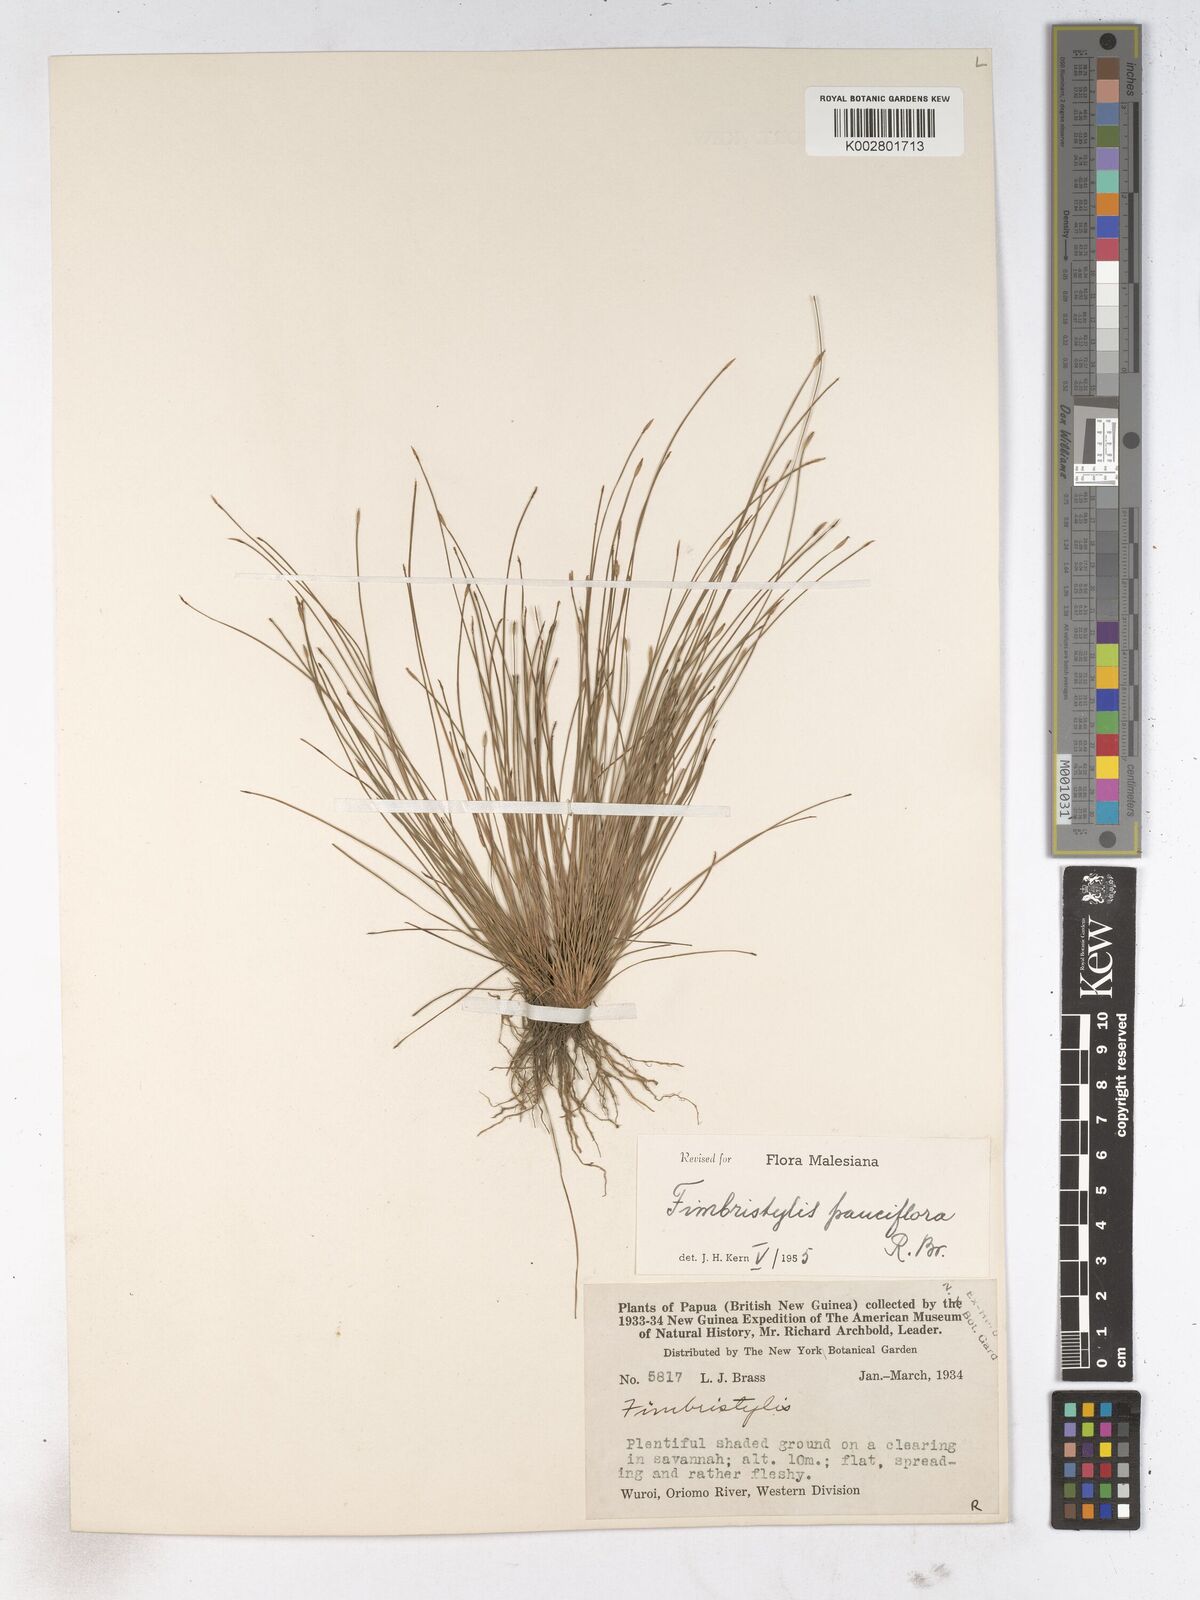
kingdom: Plantae
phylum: Tracheophyta
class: Liliopsida
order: Poales
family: Cyperaceae
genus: Fimbristylis
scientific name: Fimbristylis pauciflora
